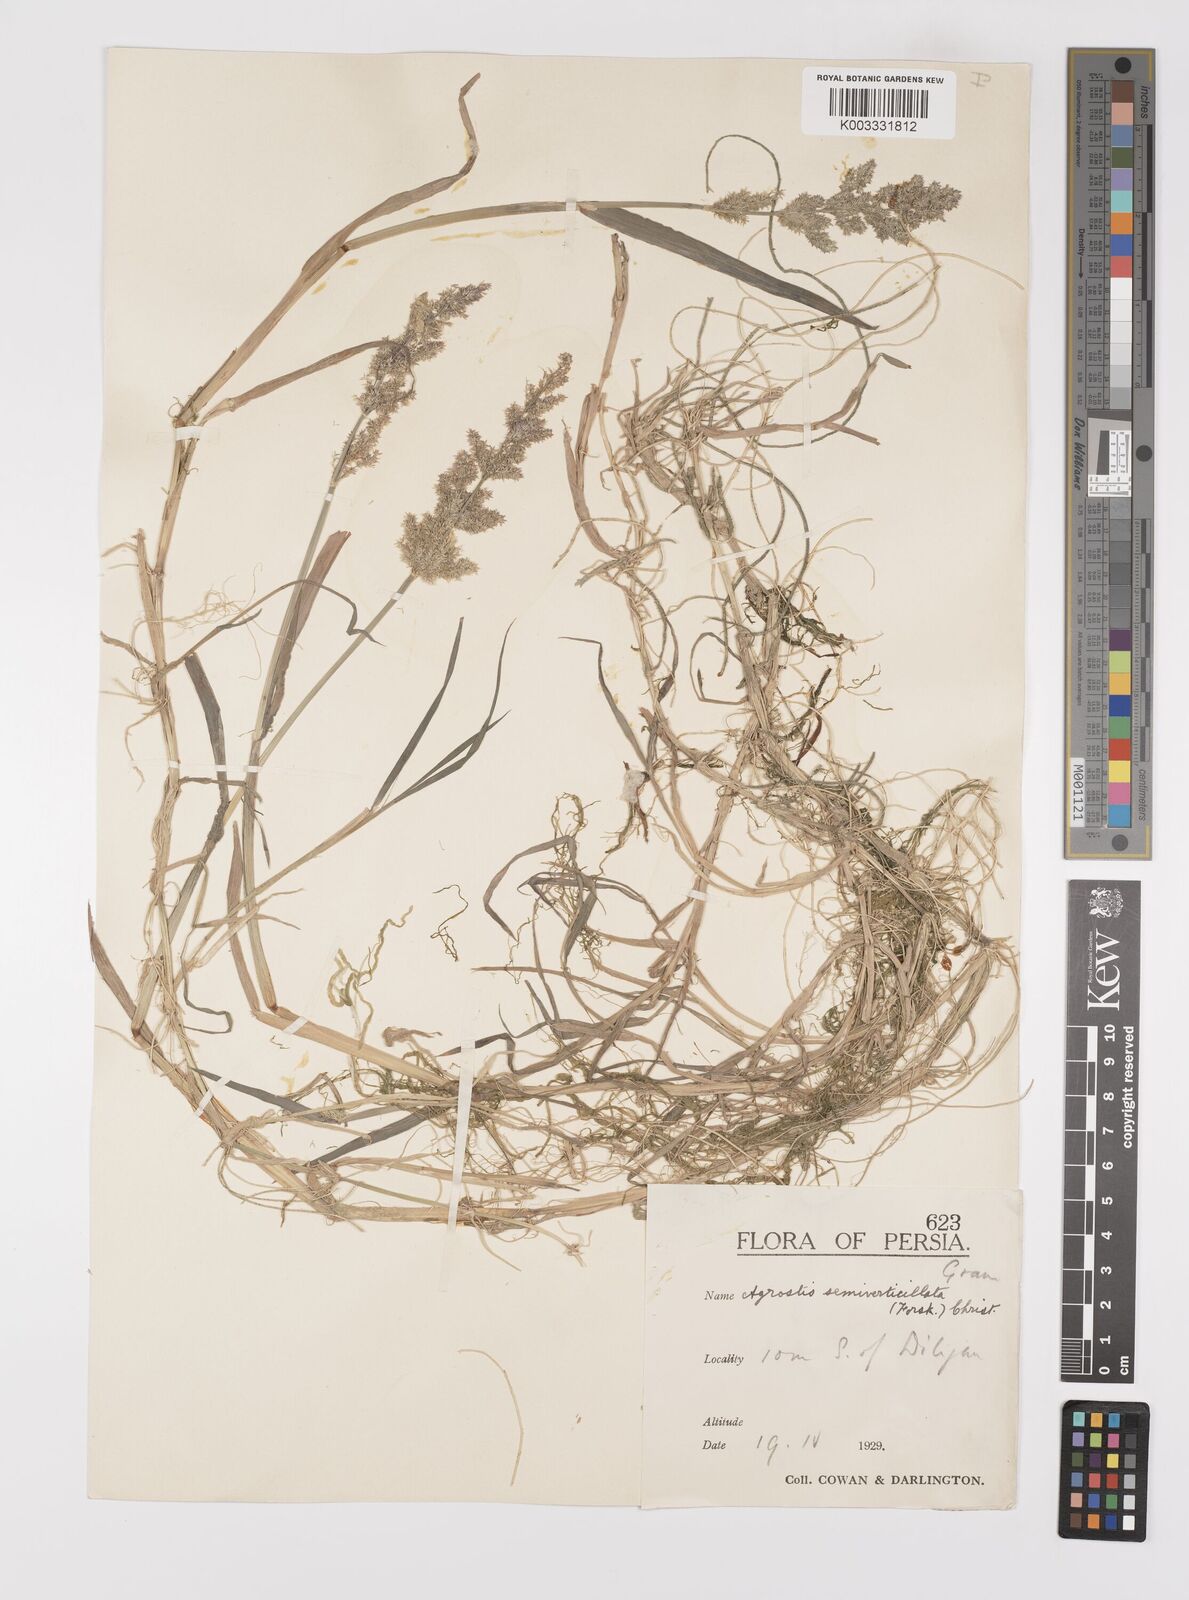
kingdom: Plantae
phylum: Tracheophyta
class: Liliopsida
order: Poales
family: Poaceae
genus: Polypogon
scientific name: Polypogon viridis
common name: Water bent
